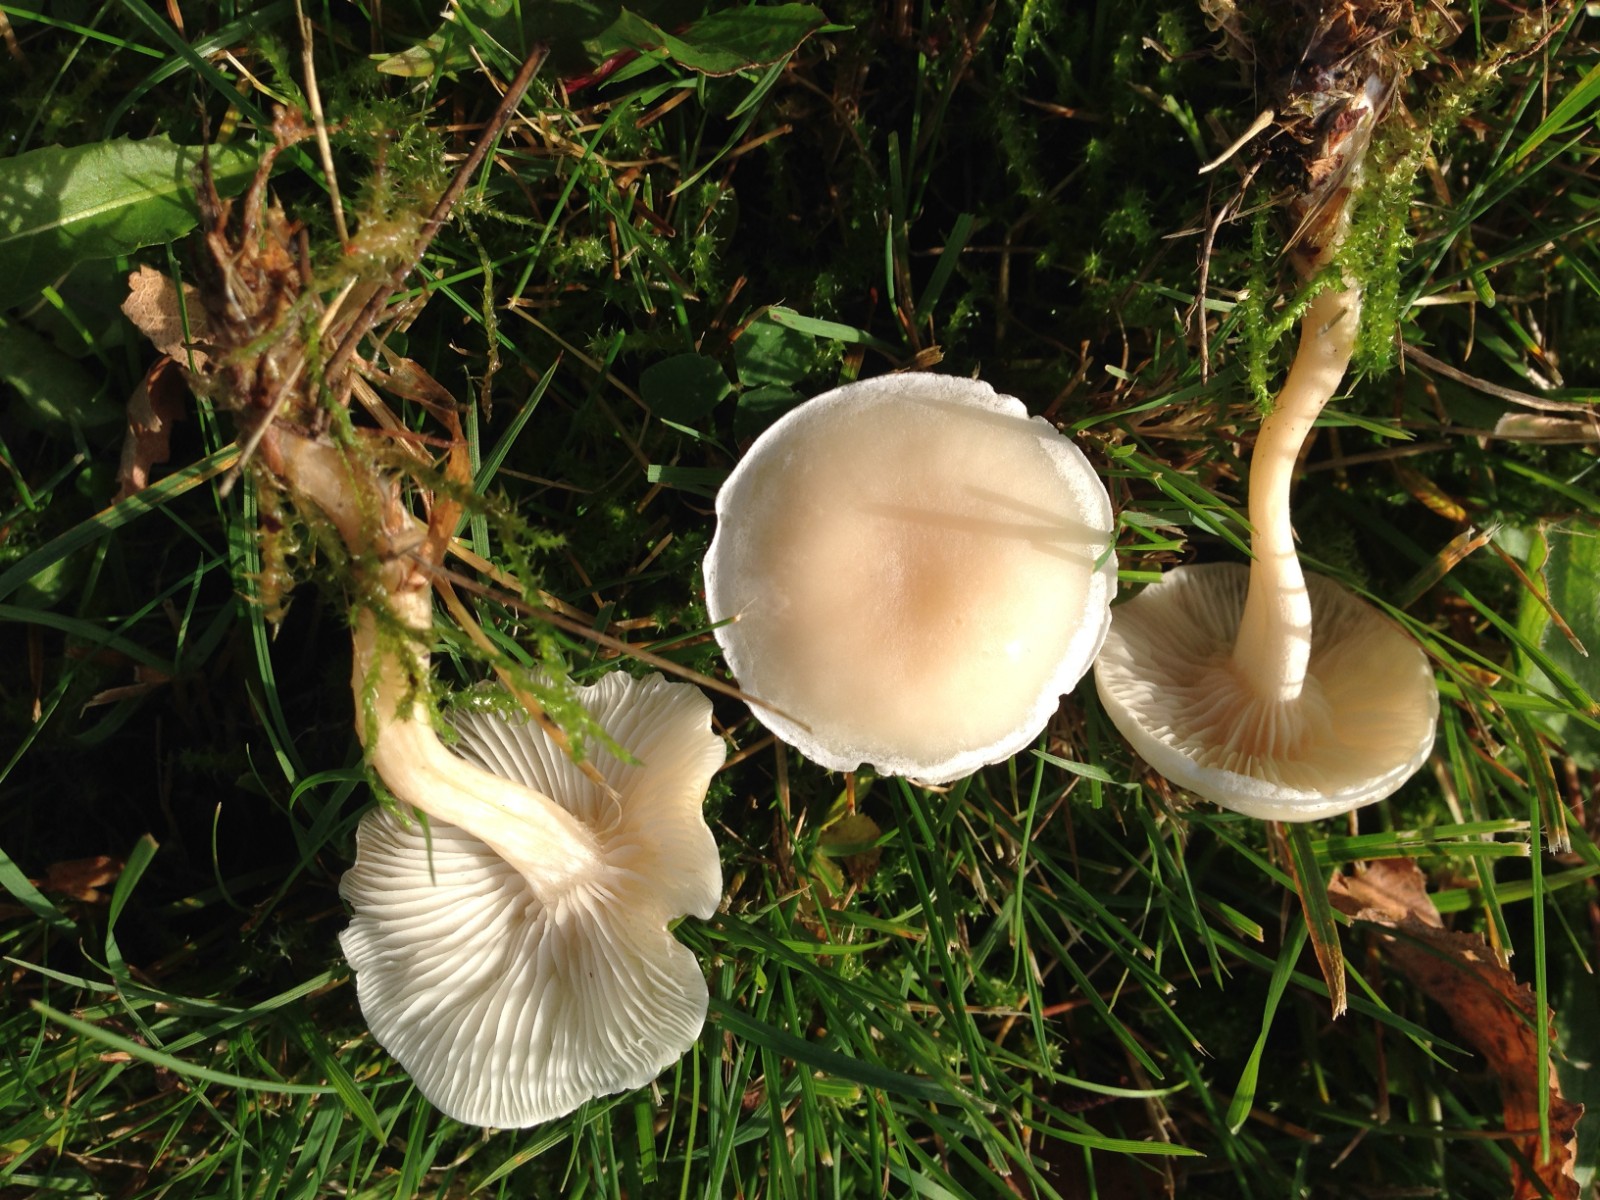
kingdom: Fungi
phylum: Basidiomycota
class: Agaricomycetes
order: Agaricales
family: Tricholomataceae
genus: Clitocybe
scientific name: Clitocybe
